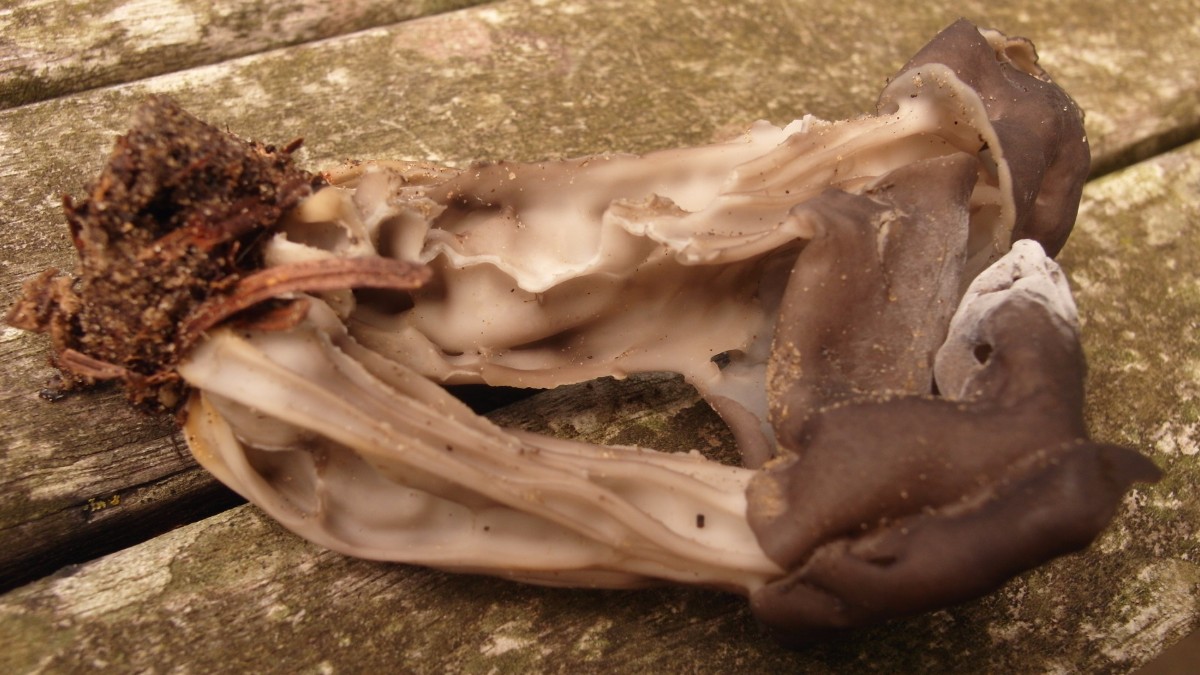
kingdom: Fungi
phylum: Ascomycota
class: Pezizomycetes
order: Pezizales
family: Helvellaceae
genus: Helvella
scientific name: Helvella lacunosa
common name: grubet foldhat
